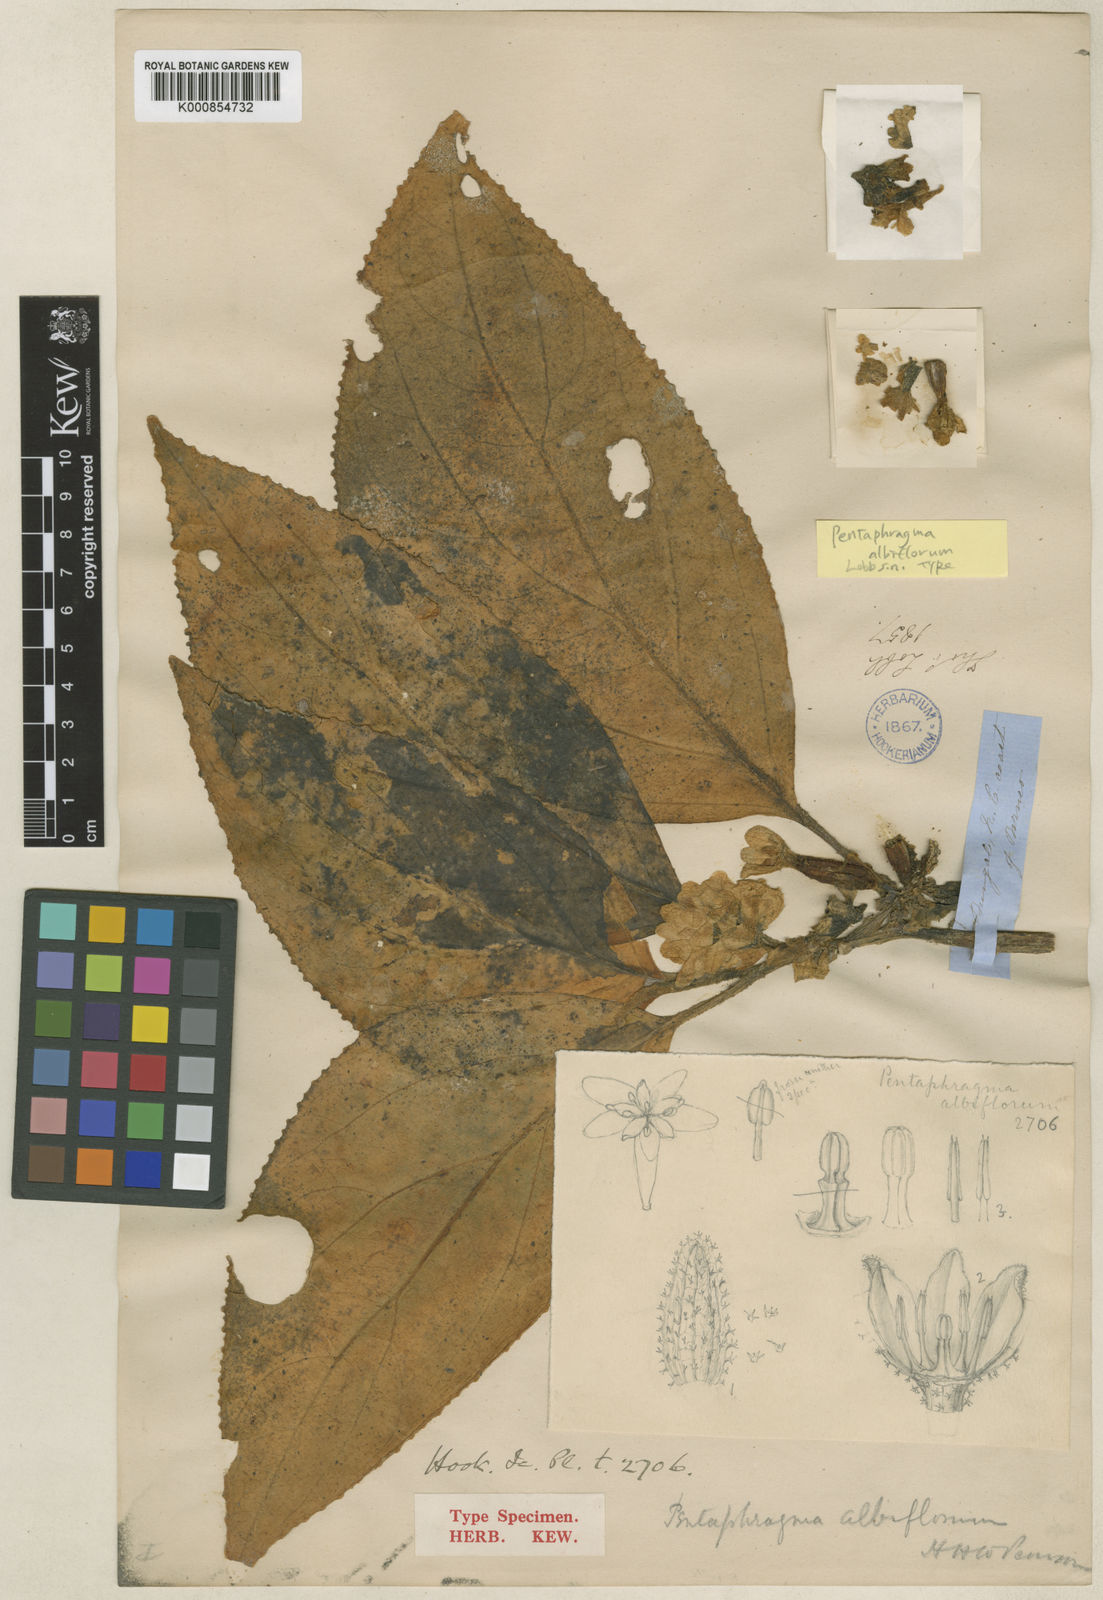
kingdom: Plantae
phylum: Tracheophyta
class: Magnoliopsida
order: Asterales
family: Pentaphragmataceae
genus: Pentaphragma
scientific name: Pentaphragma albiflorum
